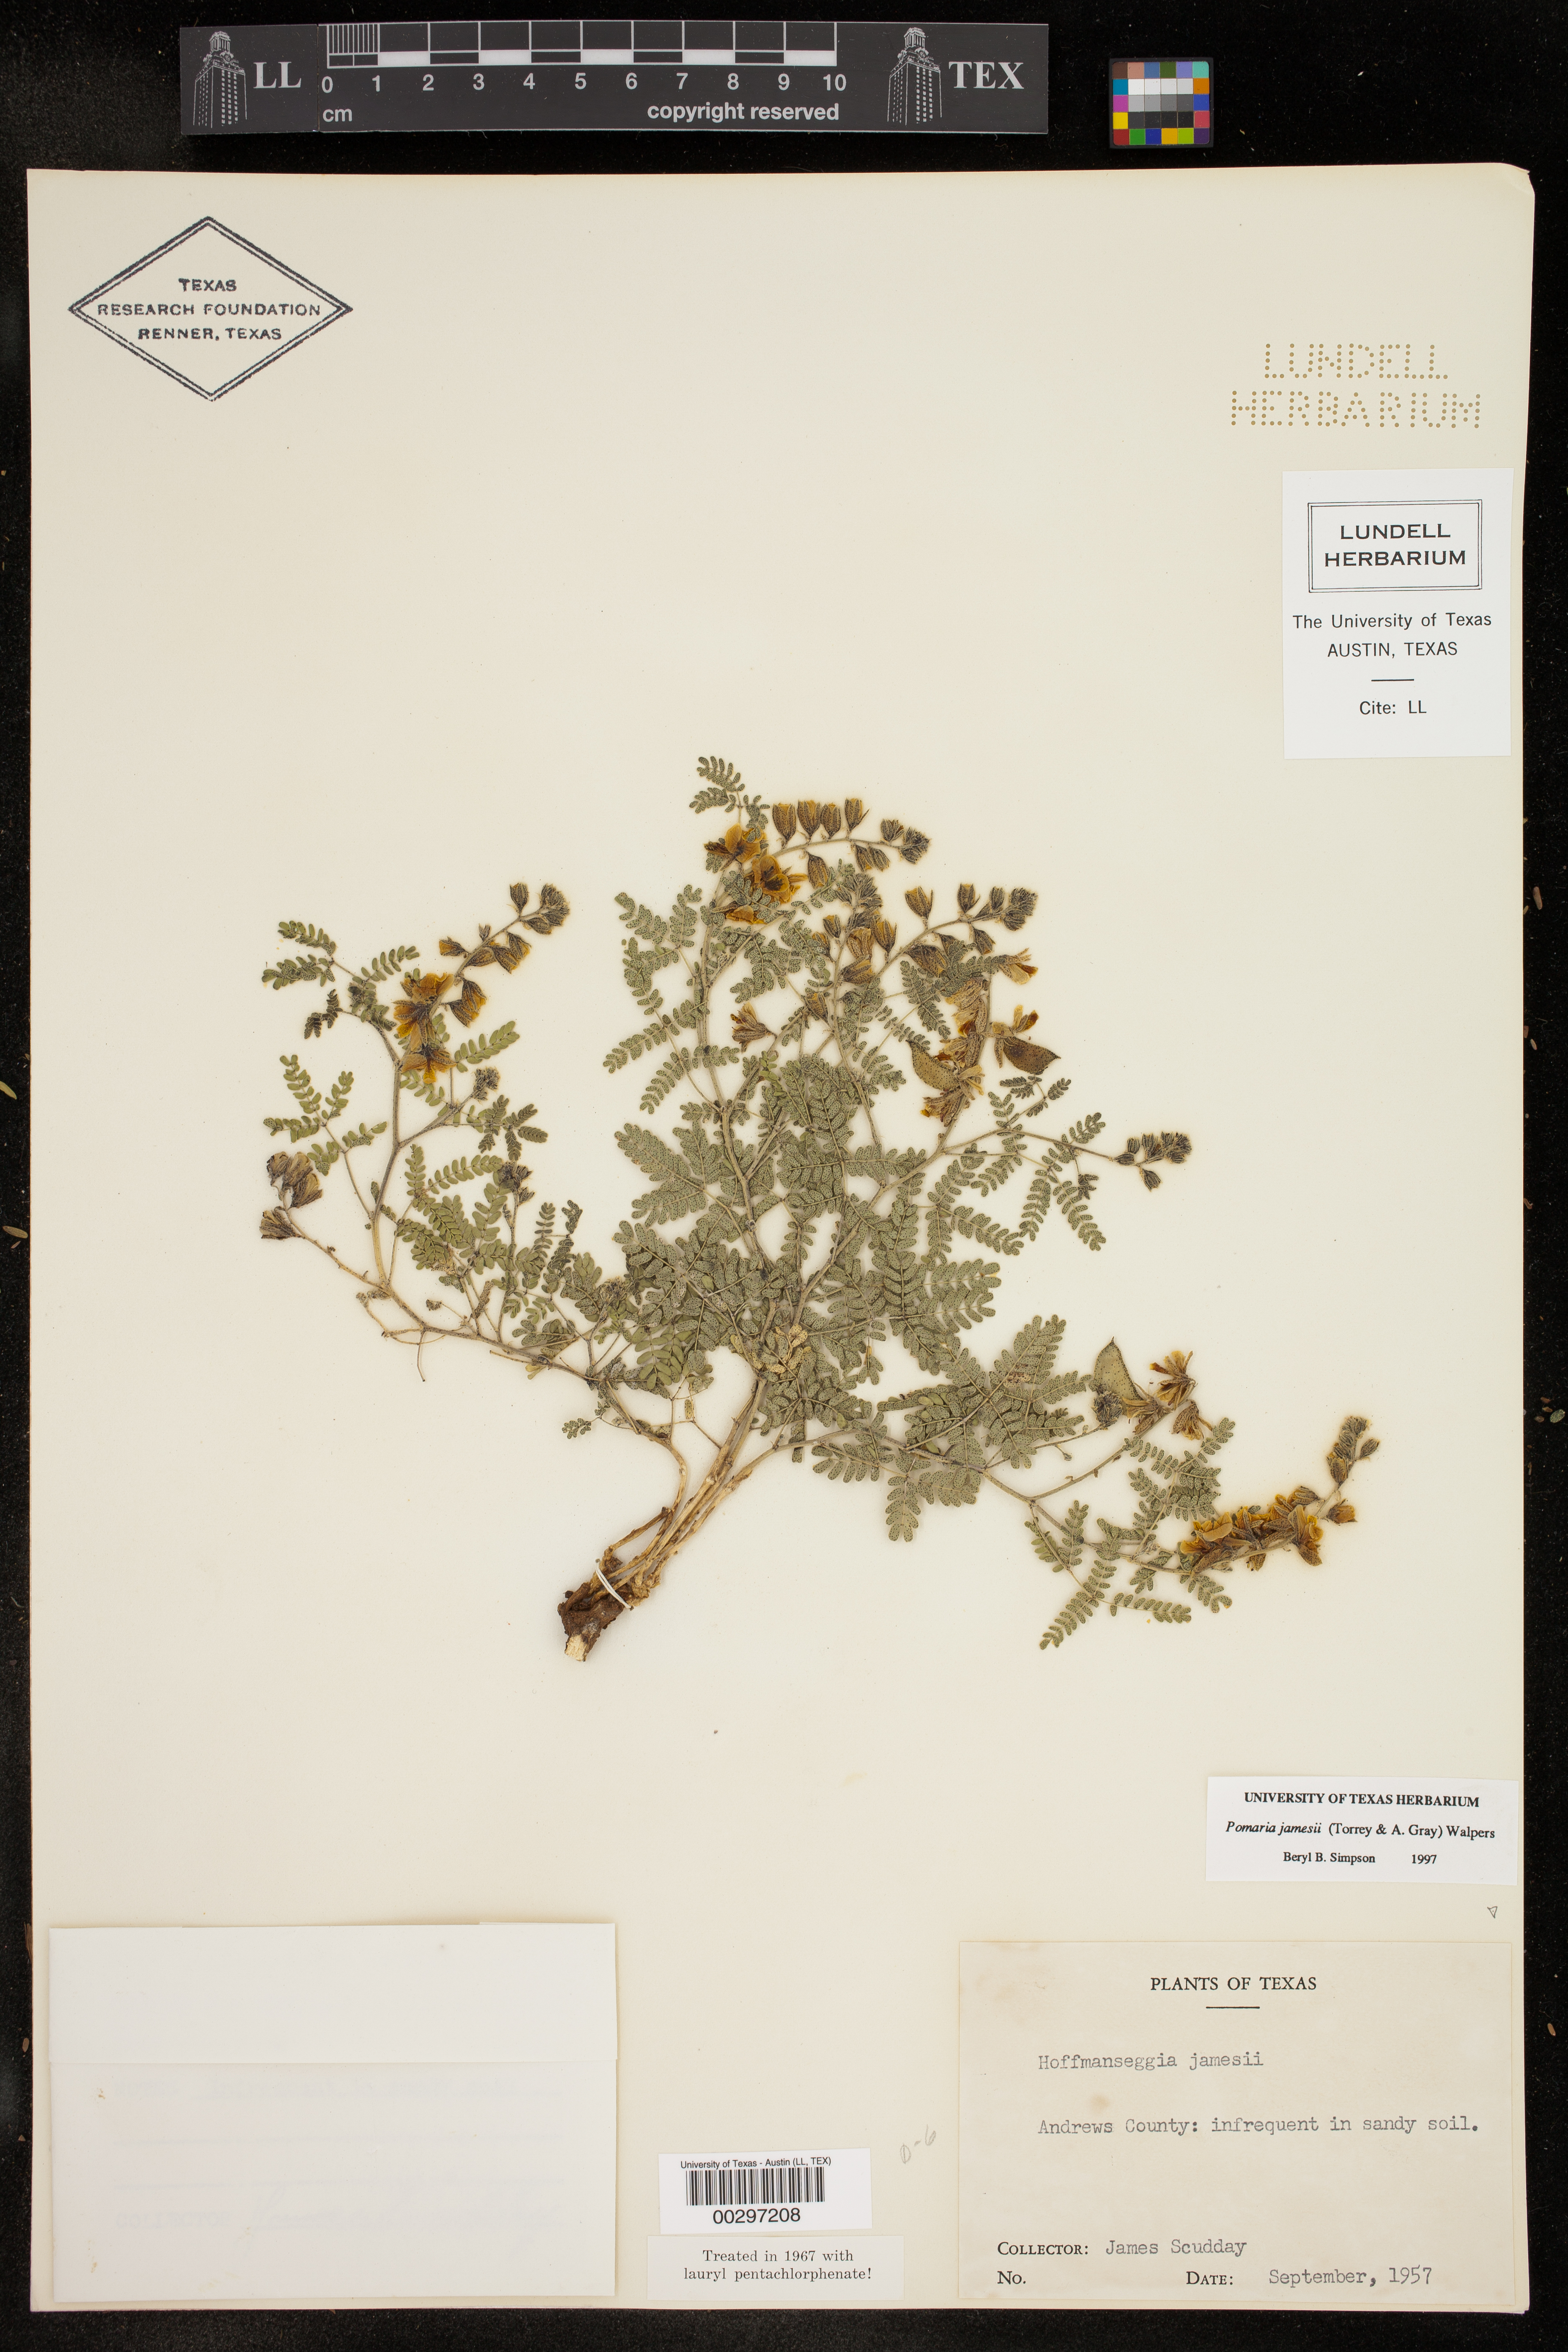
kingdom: Plantae
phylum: Tracheophyta
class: Magnoliopsida
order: Fabales
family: Fabaceae
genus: Pomaria
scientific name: Pomaria jamesii
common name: James' caesalpinia
